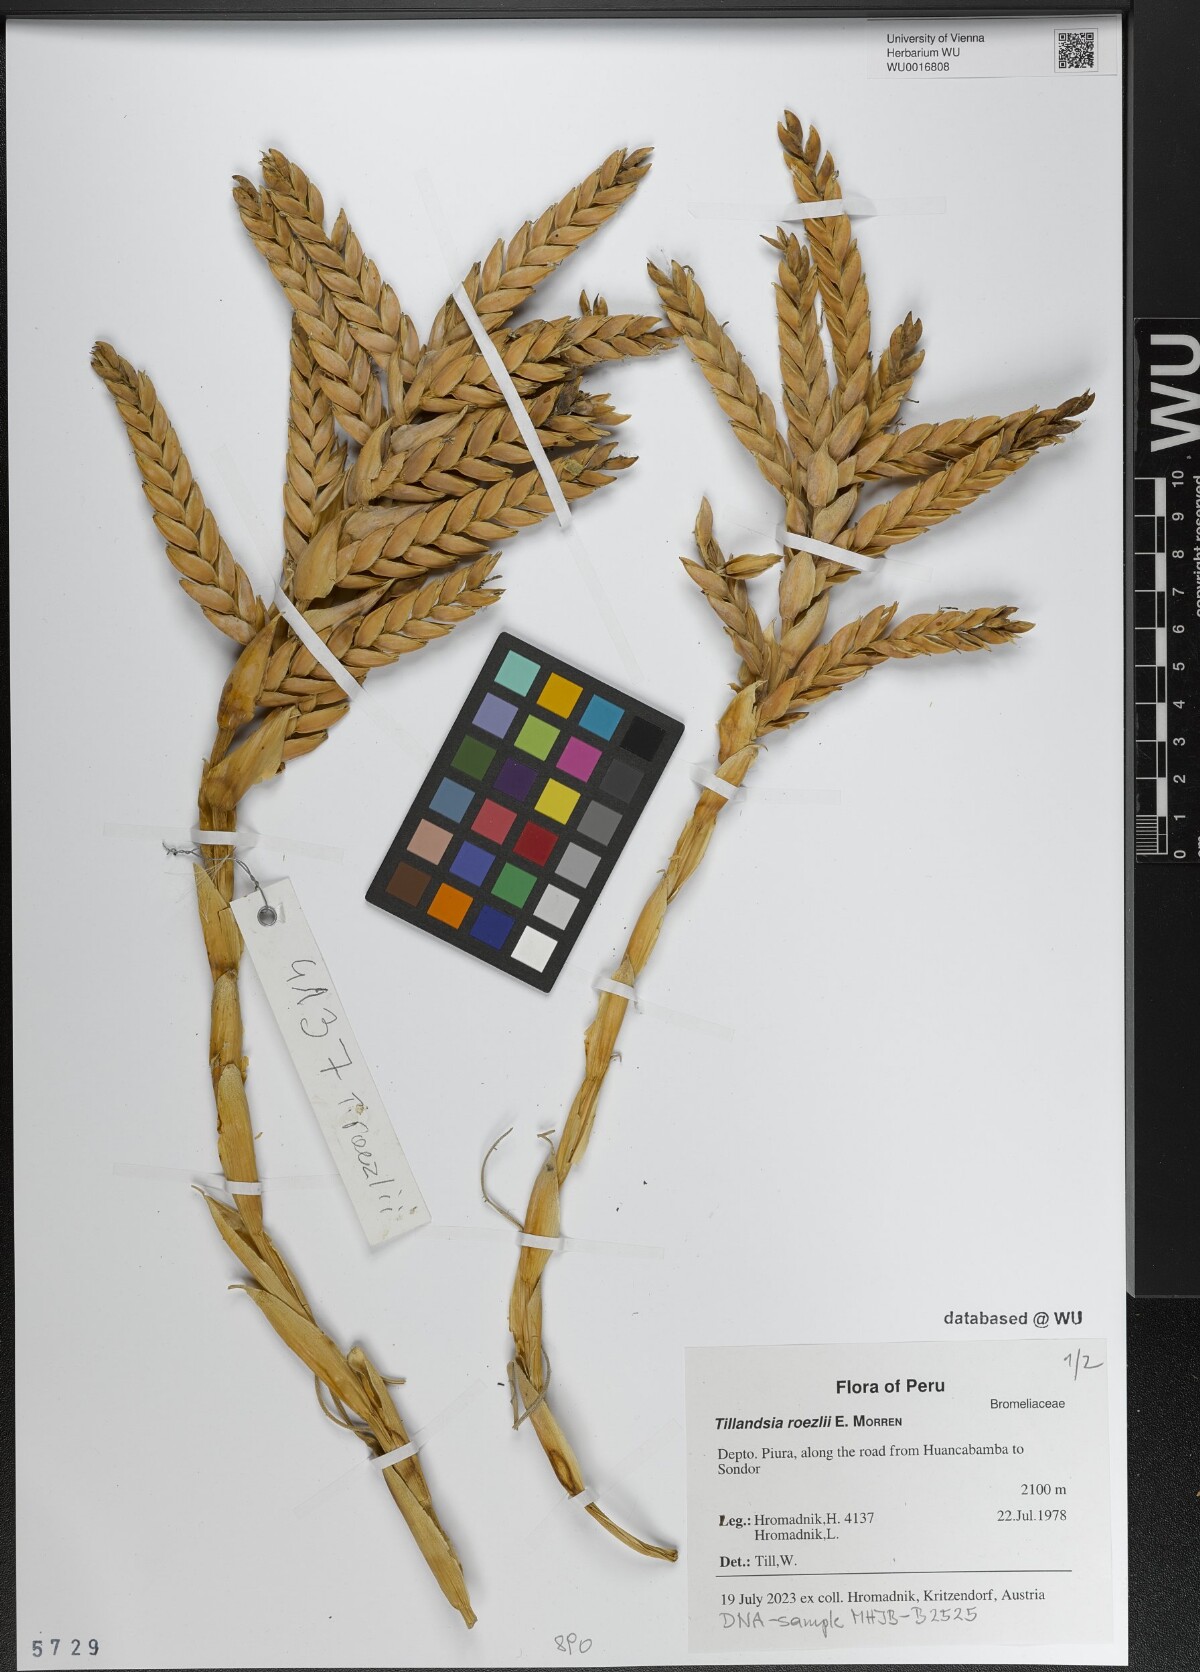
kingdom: Plantae
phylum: Tracheophyta
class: Liliopsida
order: Poales
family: Bromeliaceae
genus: Tillandsia
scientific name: Tillandsia roezlii
